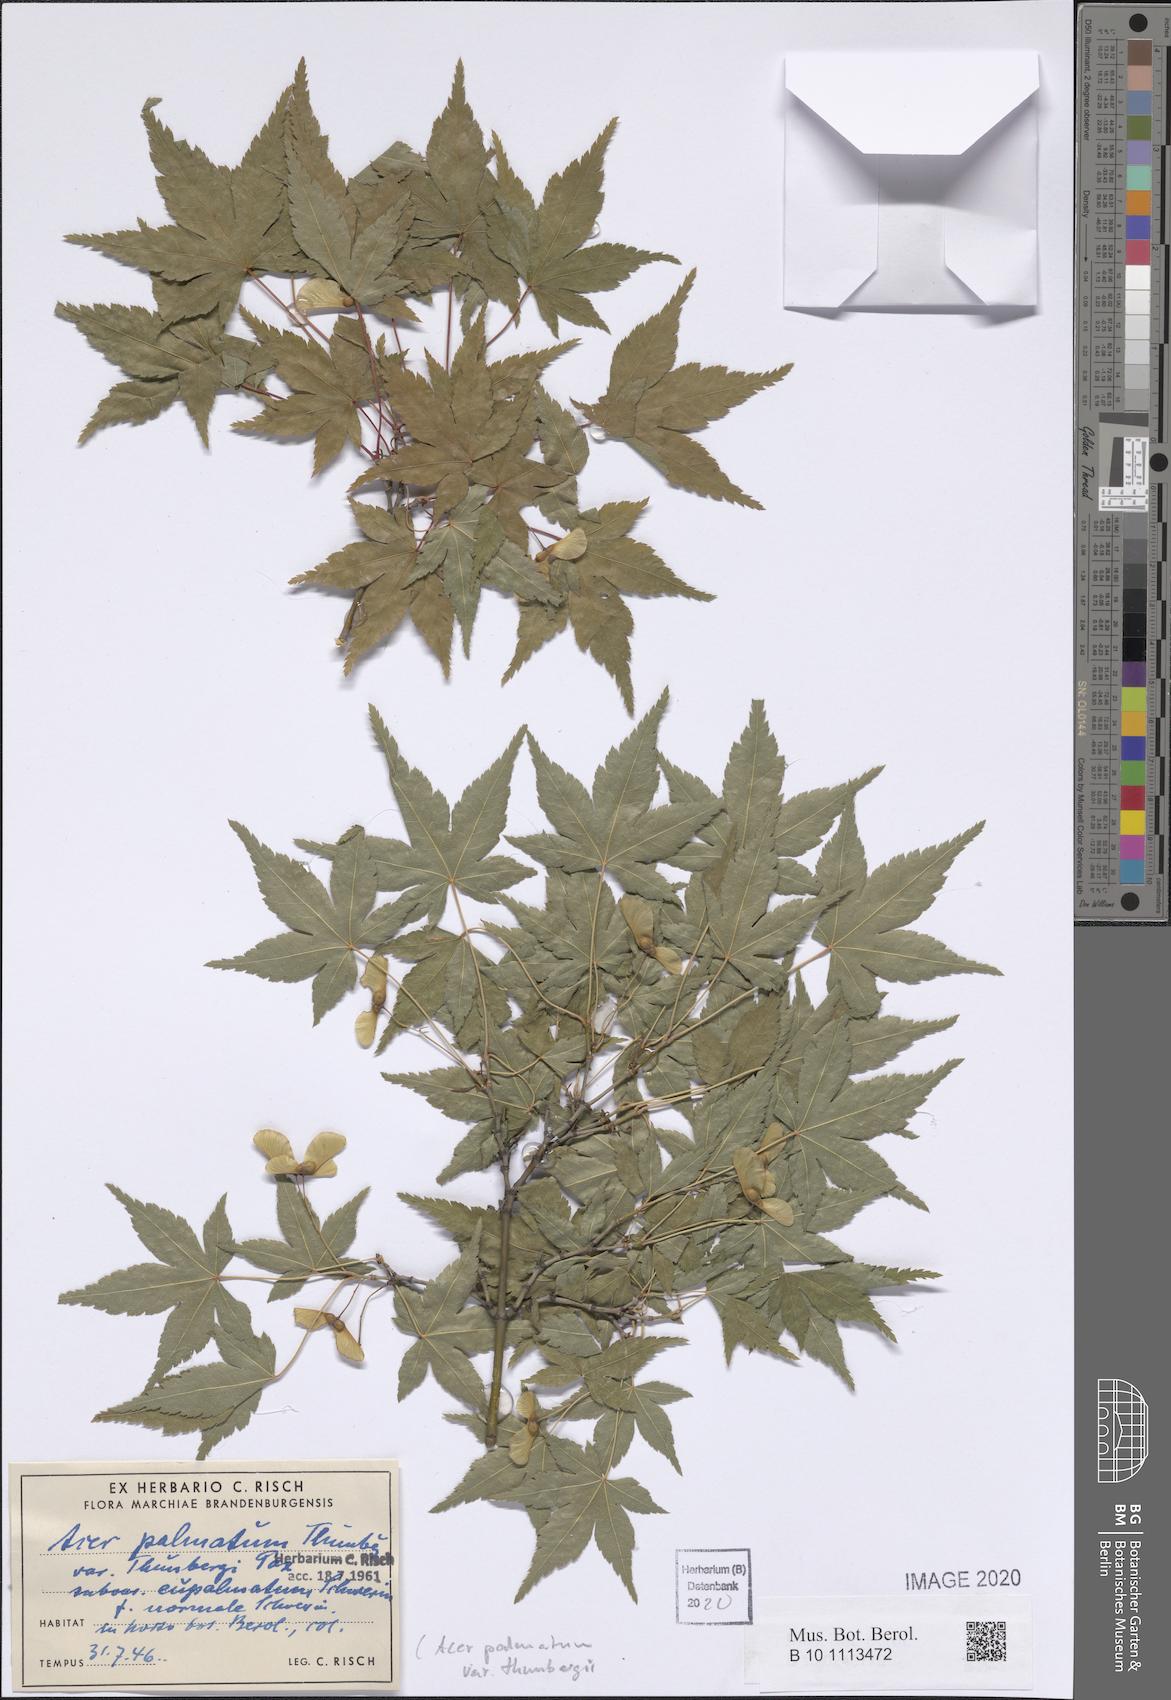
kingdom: Plantae
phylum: Tracheophyta
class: Magnoliopsida
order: Sapindales
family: Sapindaceae
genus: Acer
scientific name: Acer palmatum
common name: Japanese maple
